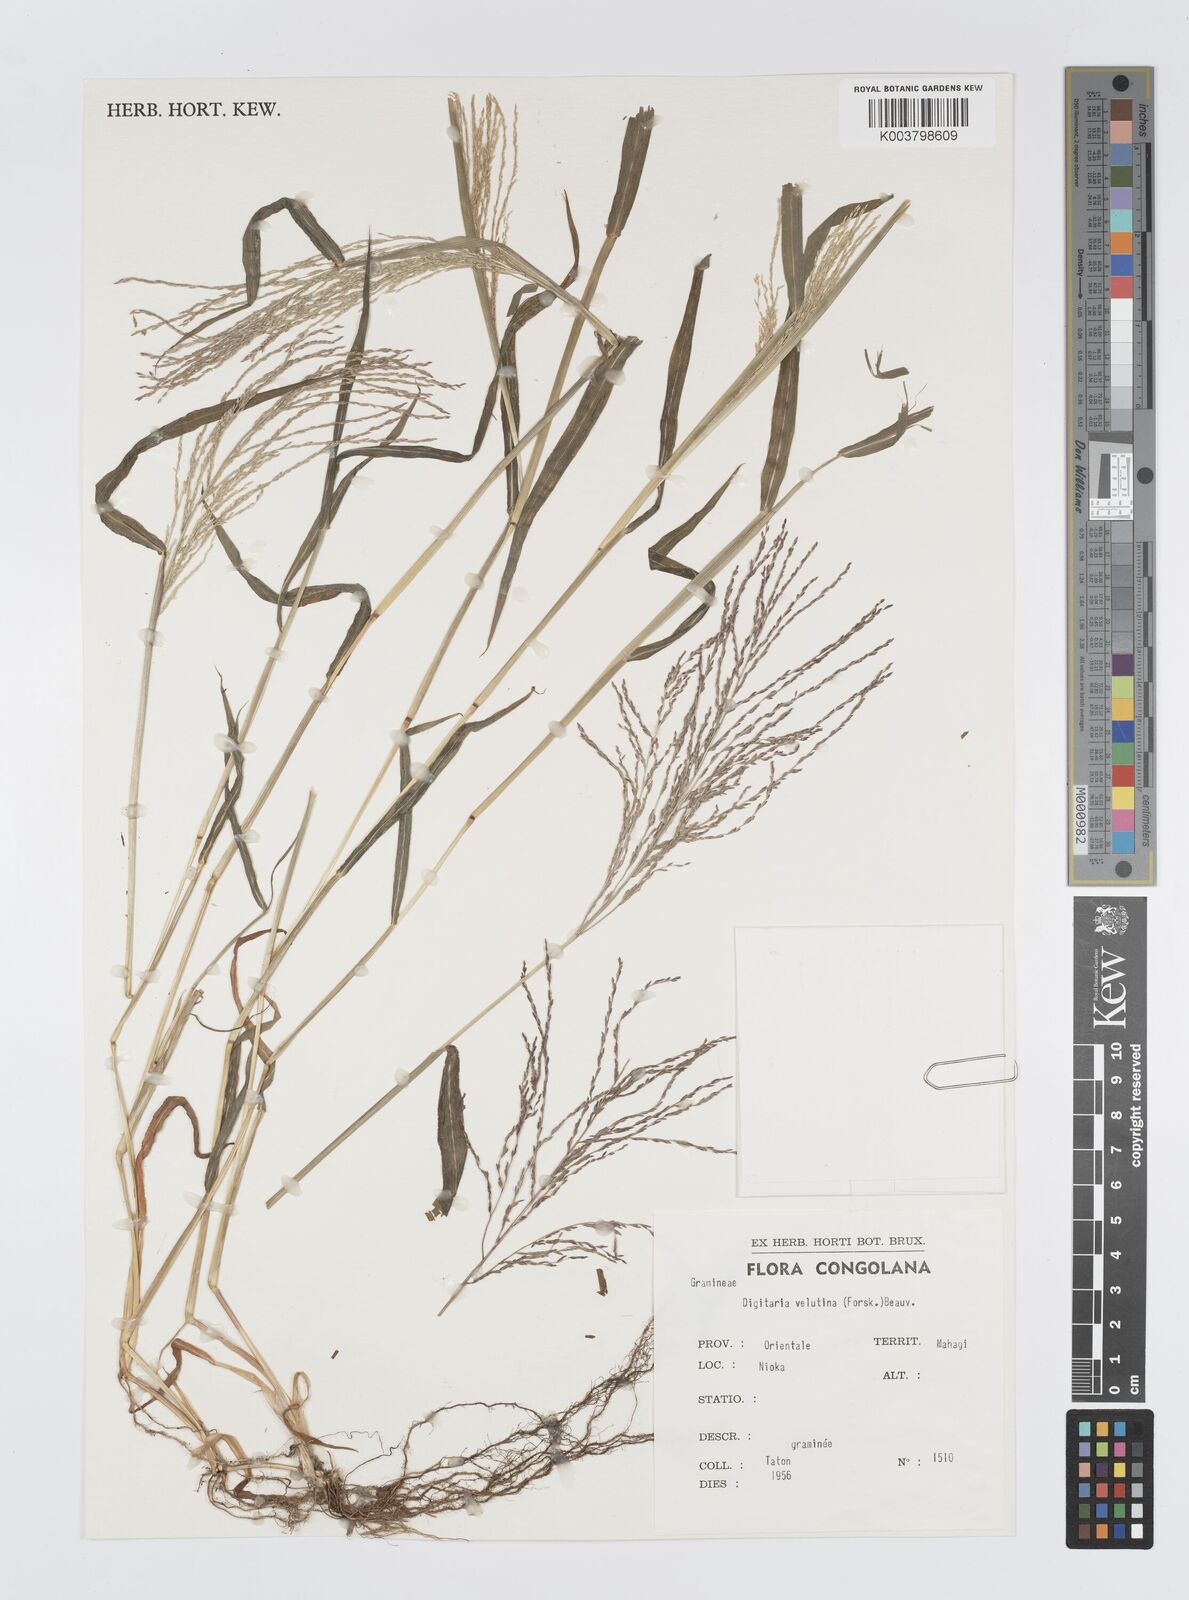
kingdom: Plantae
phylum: Tracheophyta
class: Liliopsida
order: Poales
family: Poaceae
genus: Digitaria
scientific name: Digitaria velutina
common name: Long-plume finger grass
